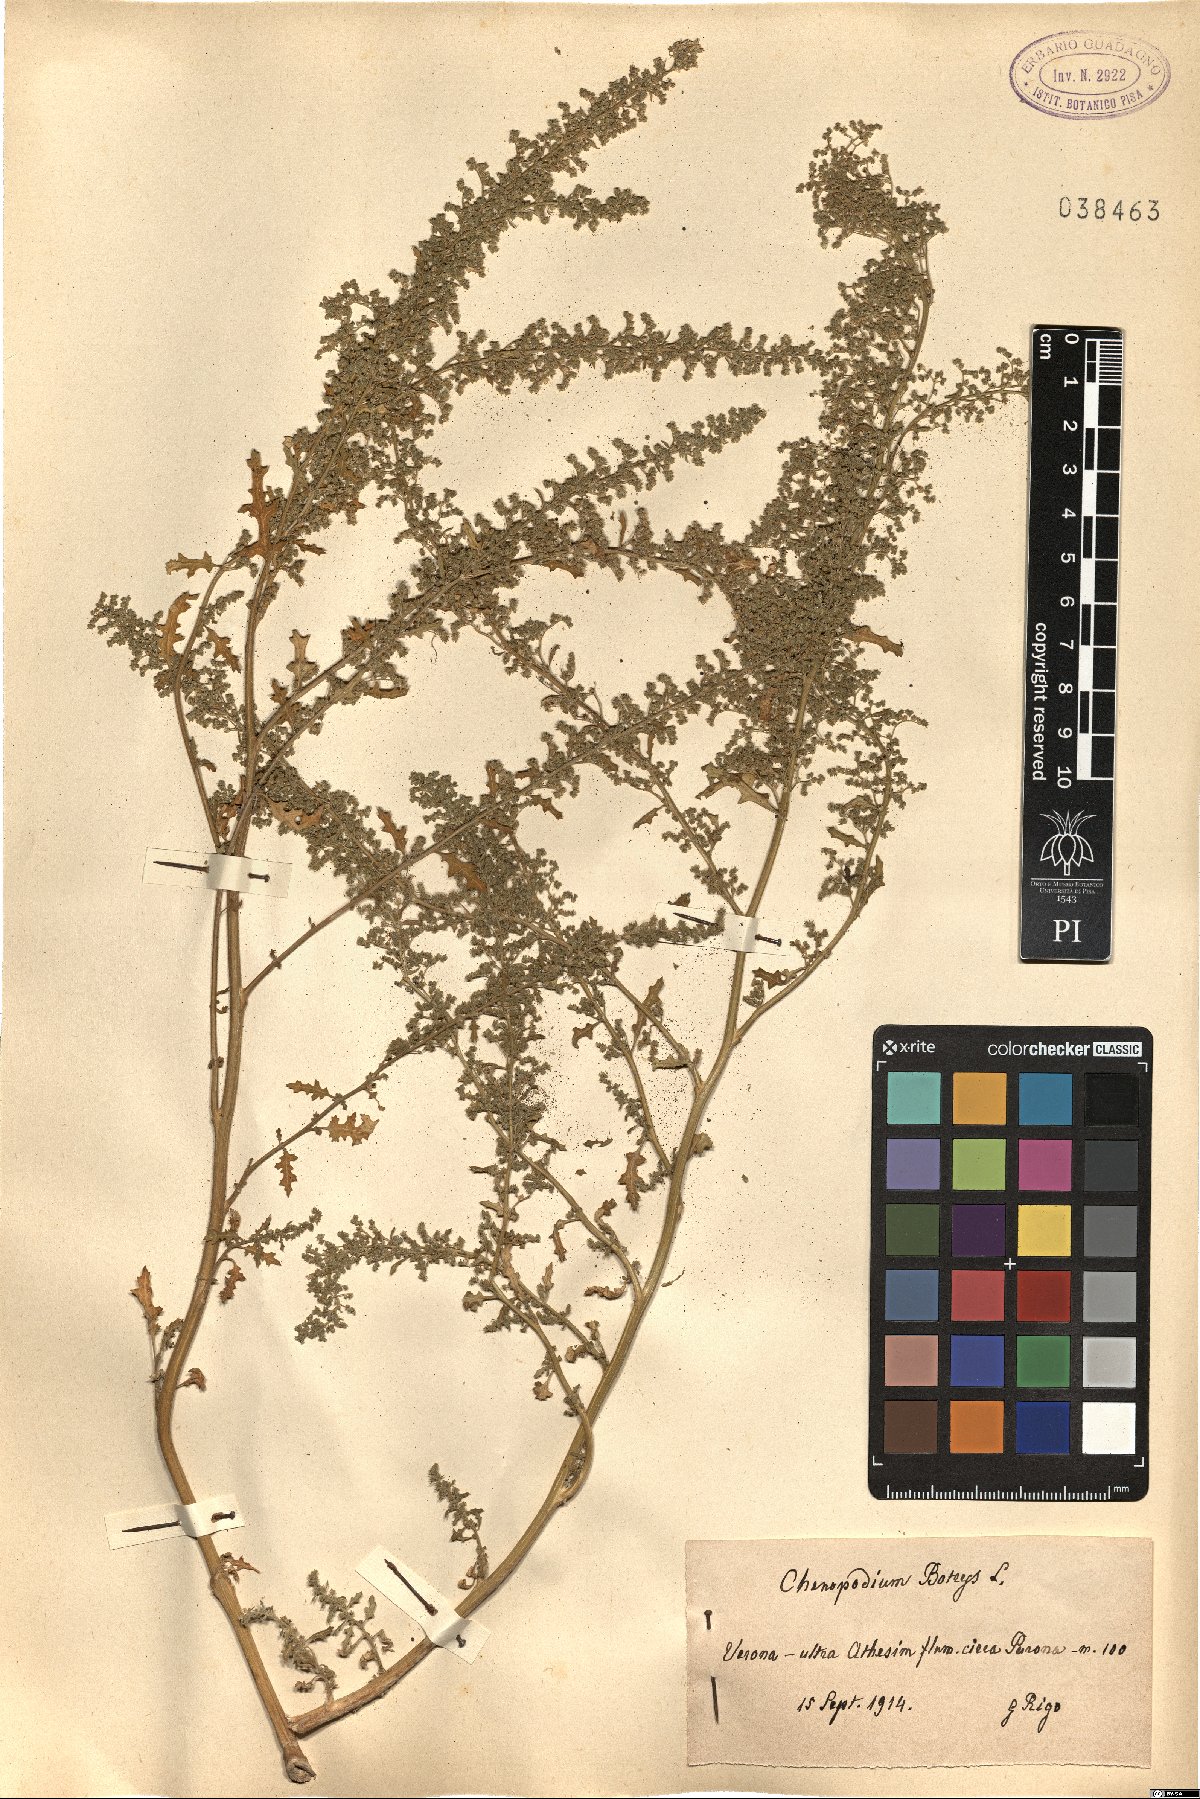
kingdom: Plantae
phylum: Tracheophyta
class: Magnoliopsida
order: Caryophyllales
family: Amaranthaceae
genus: Dysphania
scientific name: Dysphania botrys
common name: Feather-geranium
